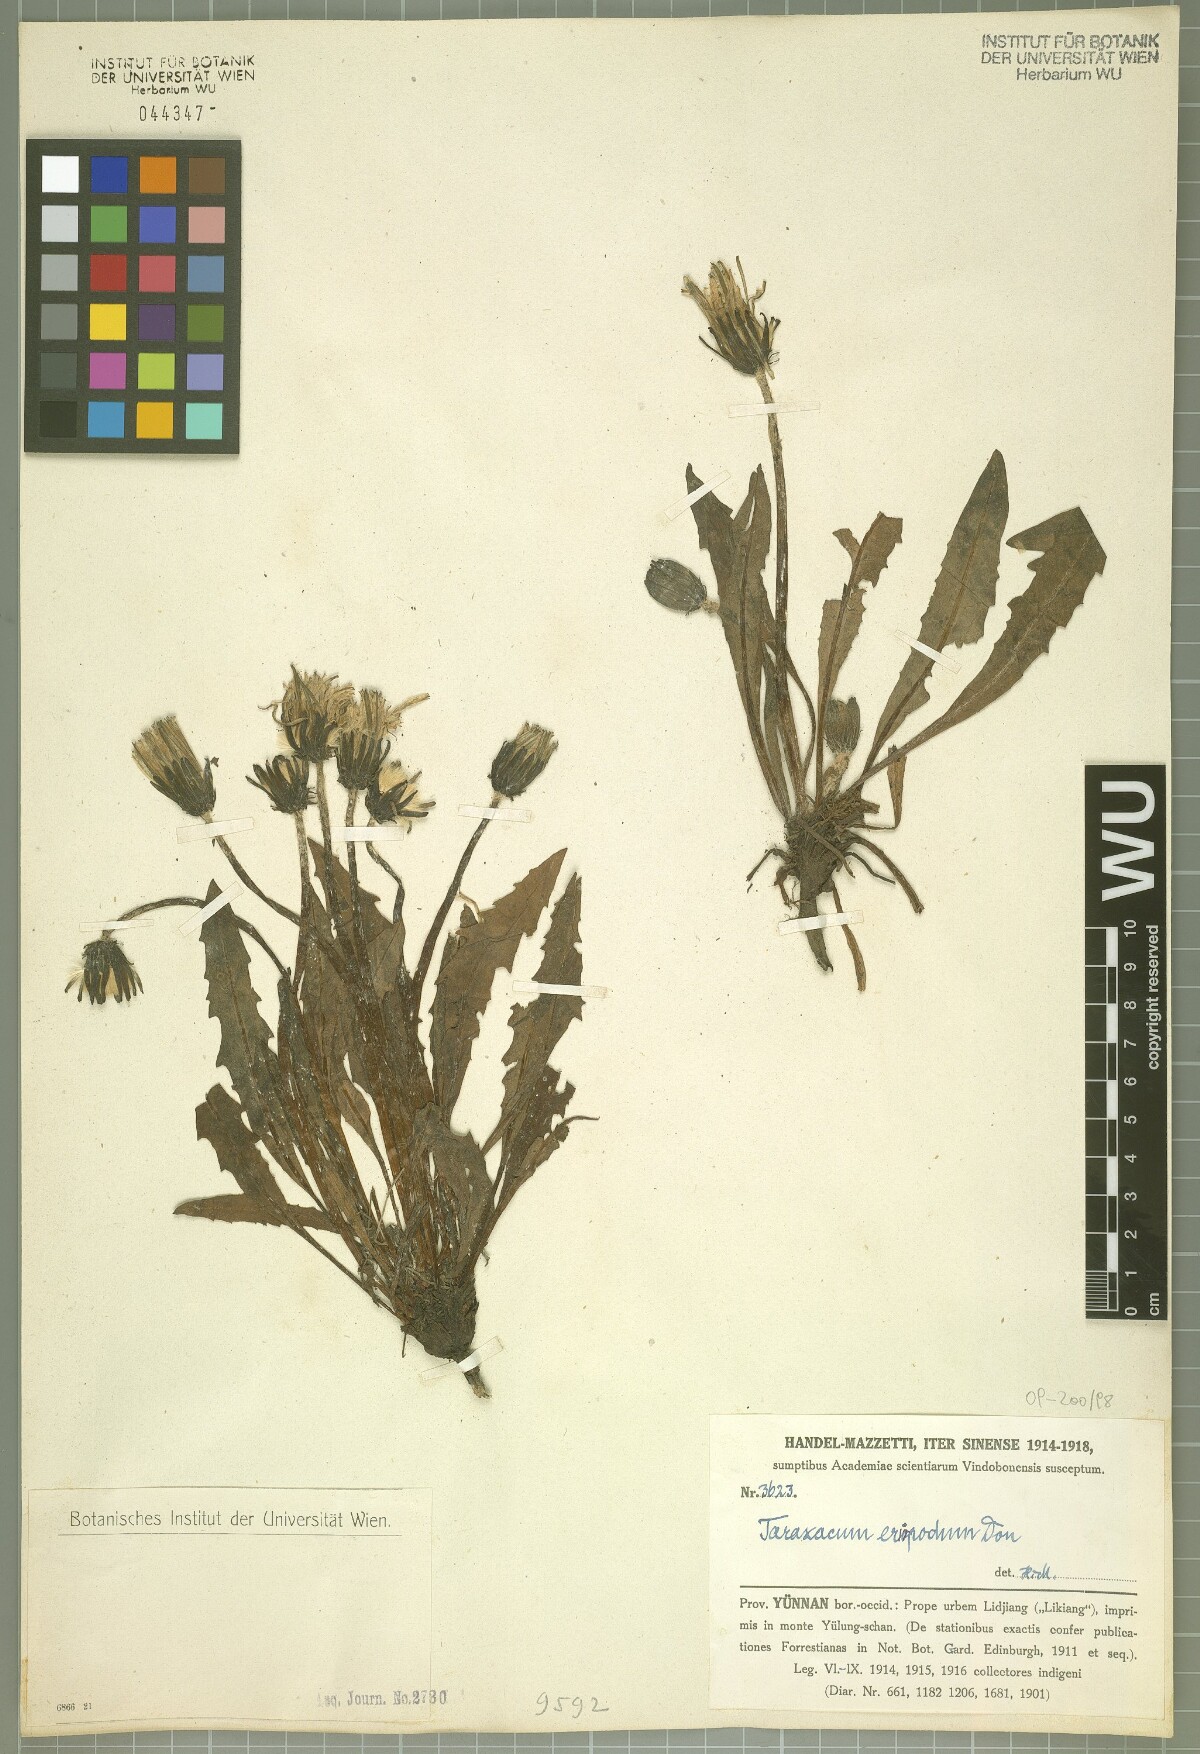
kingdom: Plantae
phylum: Tracheophyta
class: Magnoliopsida
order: Asterales
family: Asteraceae
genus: Taraxacum
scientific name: Taraxacum eriopodum
